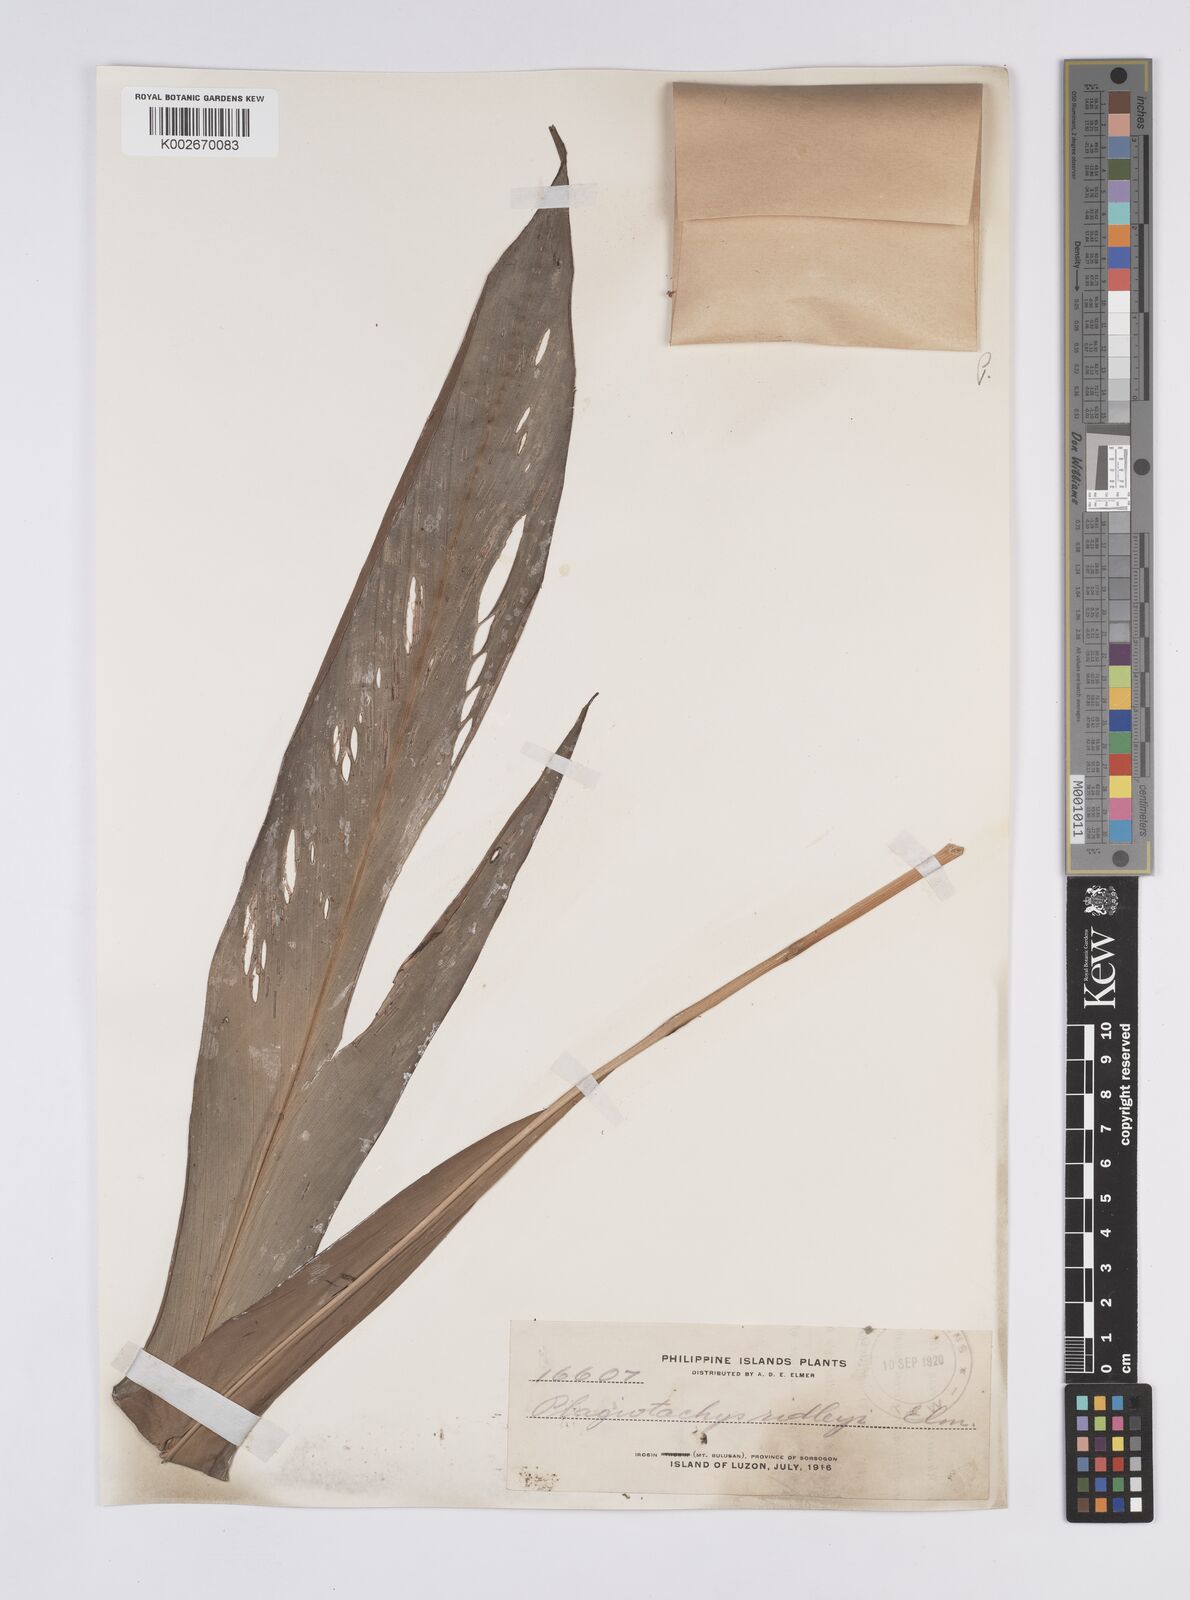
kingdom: Plantae
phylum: Tracheophyta
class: Liliopsida
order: Zingiberales
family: Zingiberaceae
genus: Plagiostachys
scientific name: Plagiostachys philippinensis
